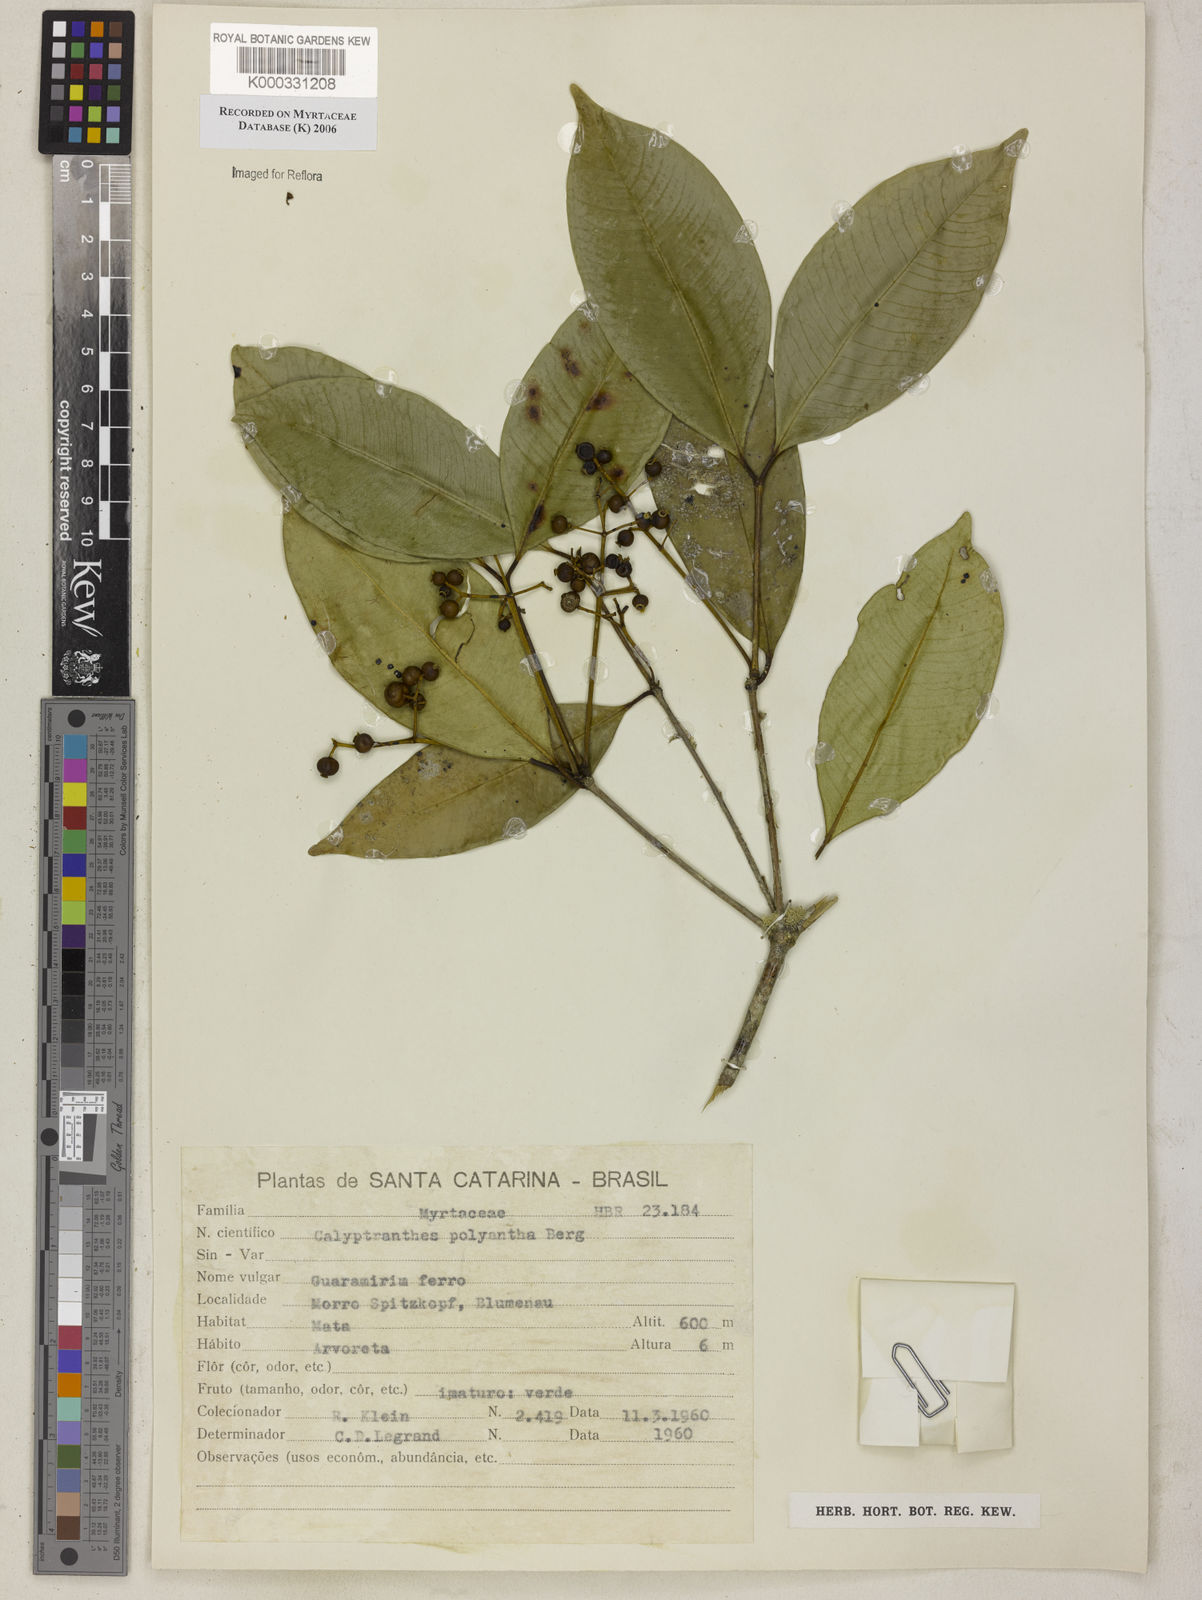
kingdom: Plantae
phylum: Tracheophyta
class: Magnoliopsida
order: Myrtales
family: Myrtaceae
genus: Myrcia
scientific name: Myrcia neolucida
